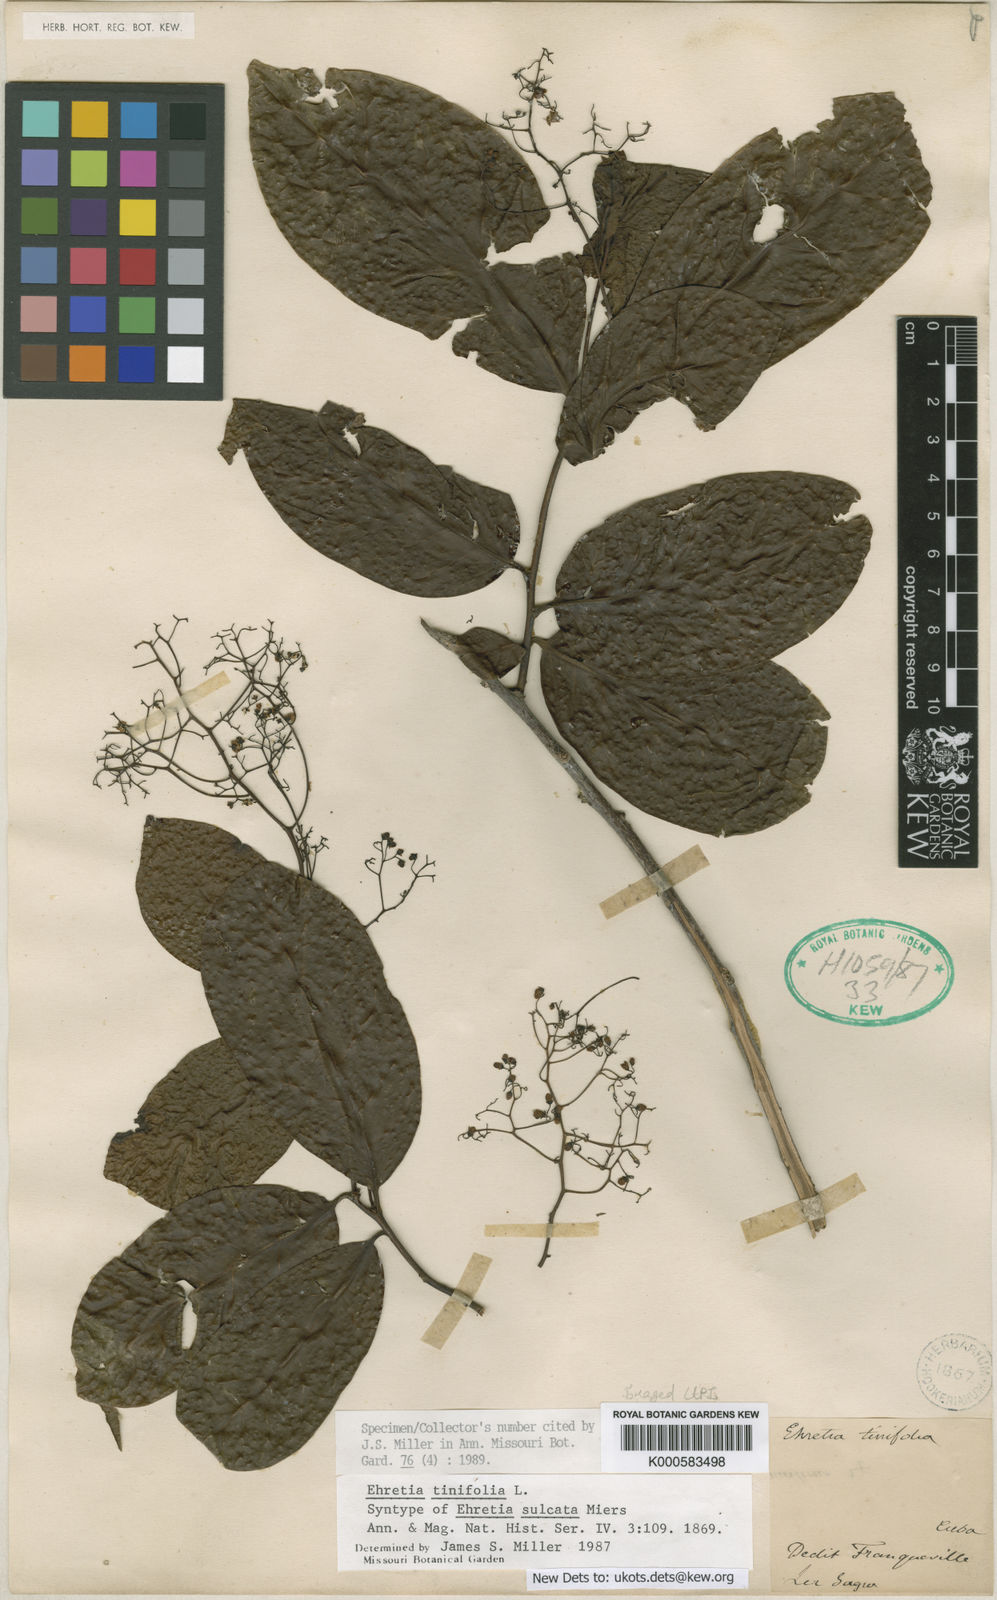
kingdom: Plantae
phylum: Tracheophyta
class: Magnoliopsida
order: Boraginales
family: Ehretiaceae
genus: Ehretia
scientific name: Ehretia tinifolia
